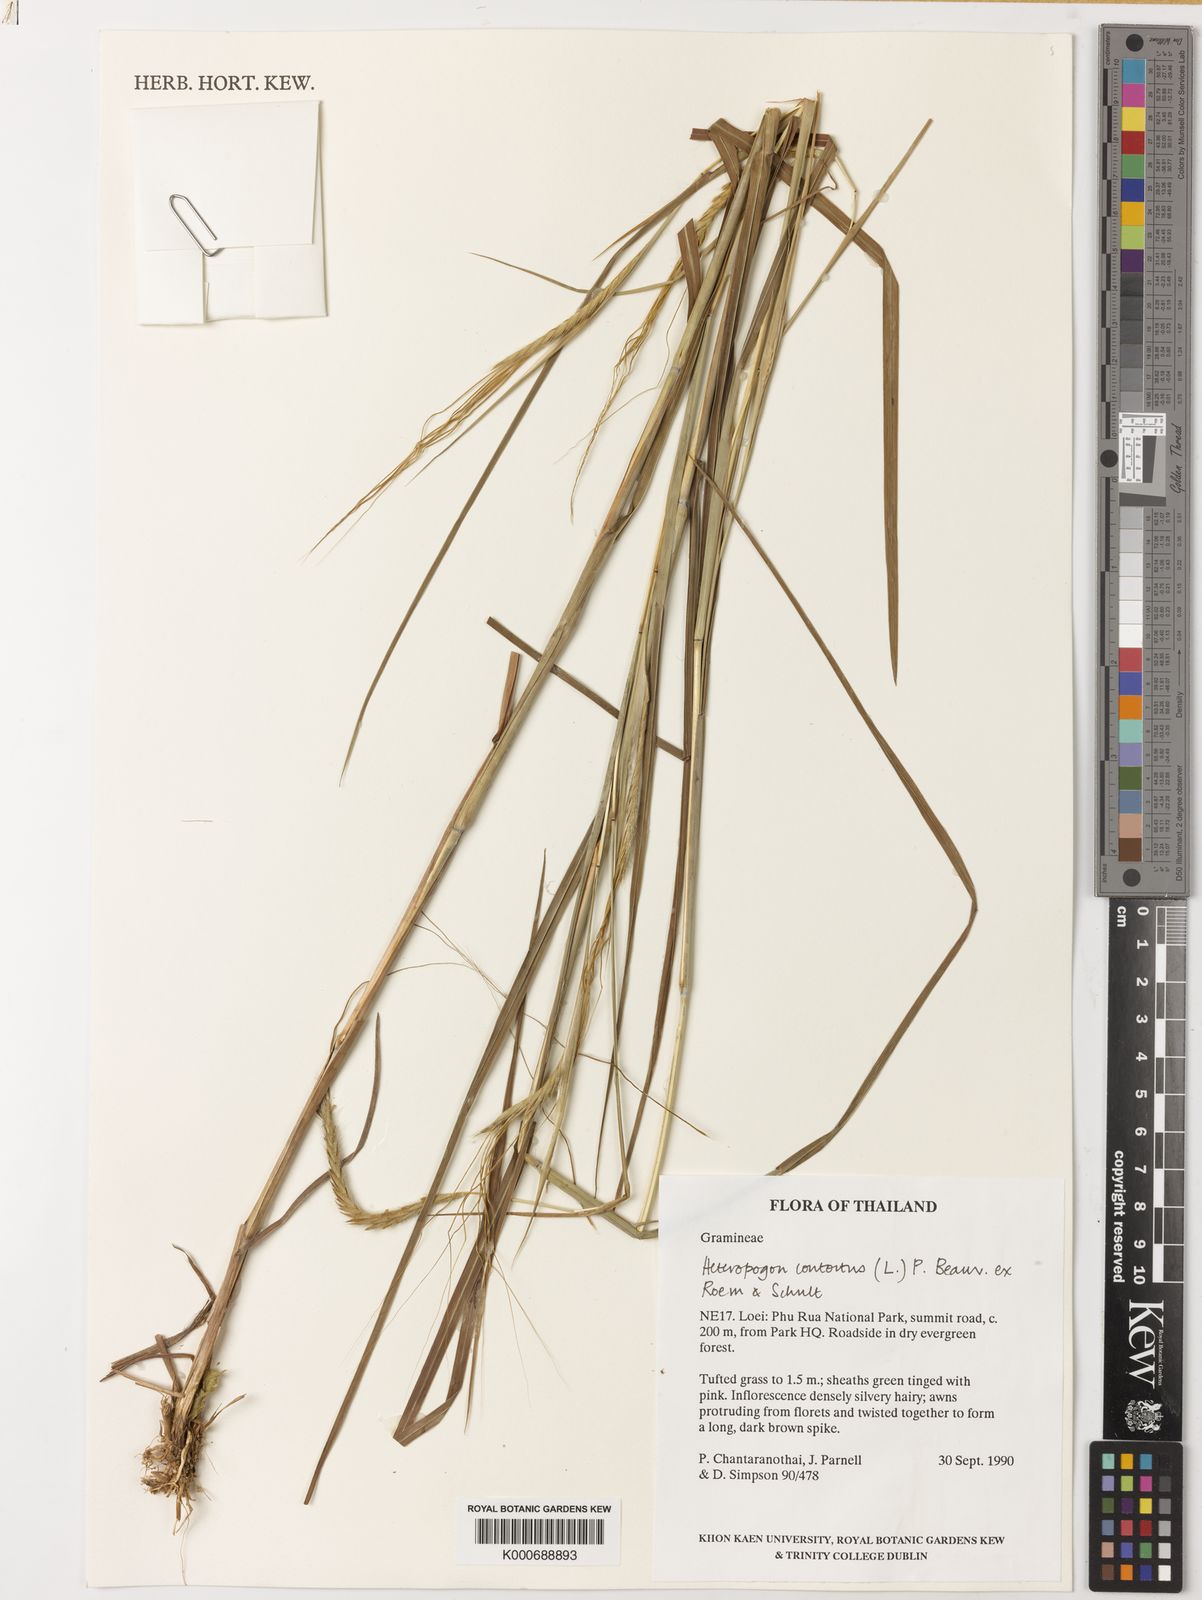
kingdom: Plantae
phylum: Tracheophyta
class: Liliopsida
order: Poales
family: Poaceae
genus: Heteropogon
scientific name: Heteropogon contortus
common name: Tanglehead
